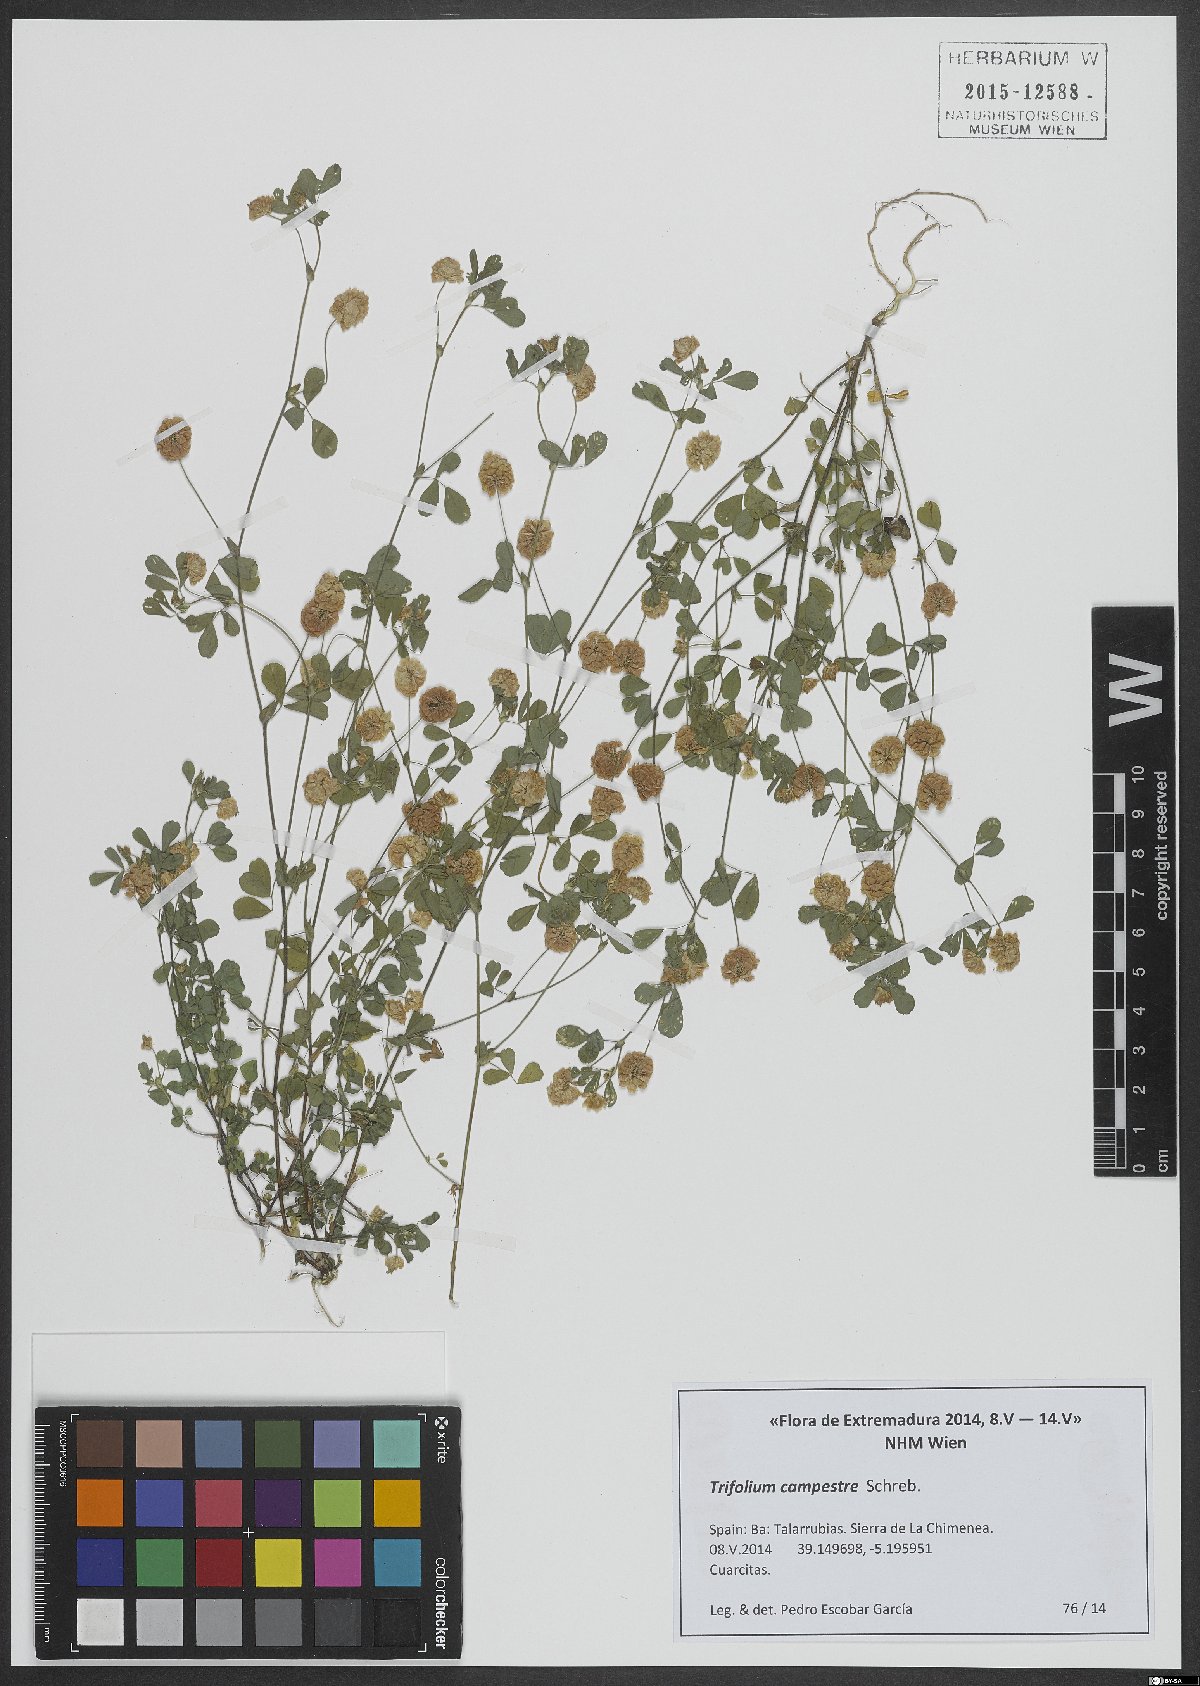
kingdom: Plantae
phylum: Tracheophyta
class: Magnoliopsida
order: Fabales
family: Fabaceae
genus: Trifolium
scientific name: Trifolium campestre
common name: Field clover
